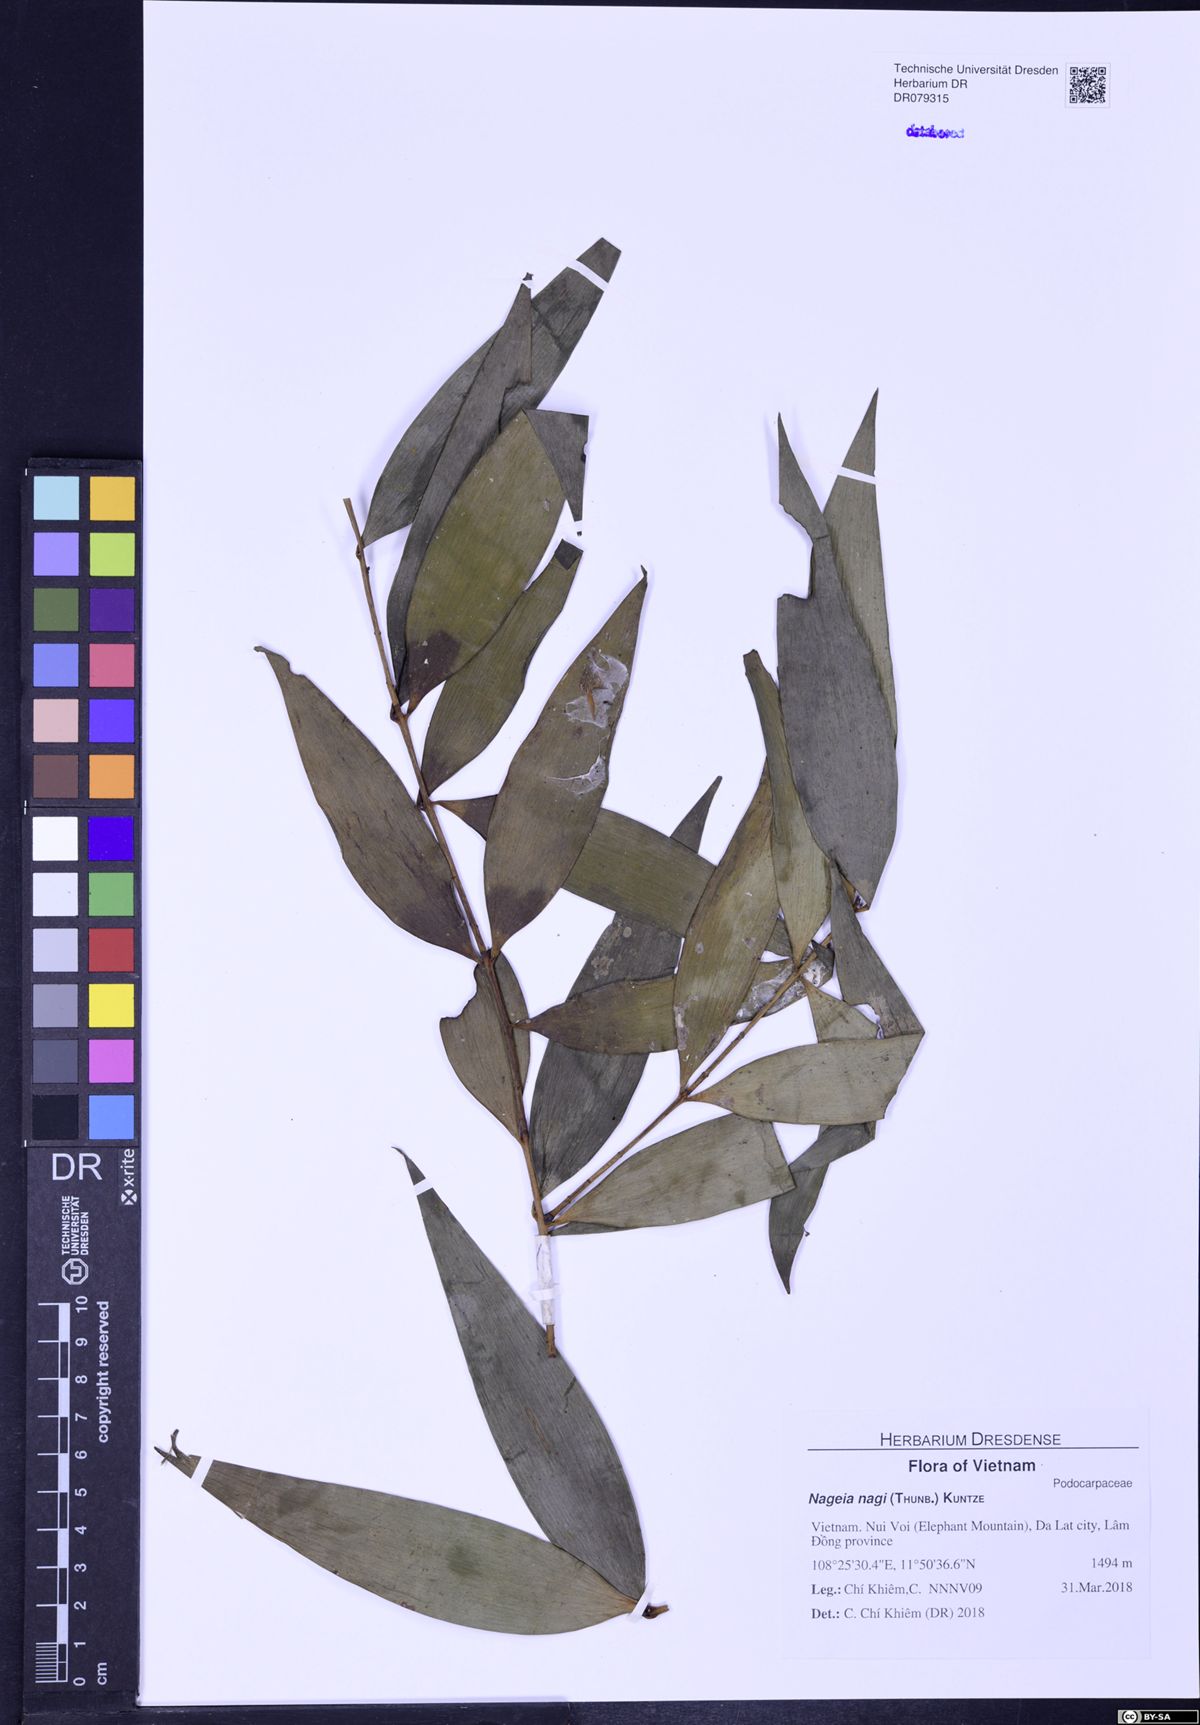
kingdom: Plantae
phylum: Tracheophyta
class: Pinopsida
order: Pinales
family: Podocarpaceae
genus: Nageia
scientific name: Nageia nagi
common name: Kaphal
